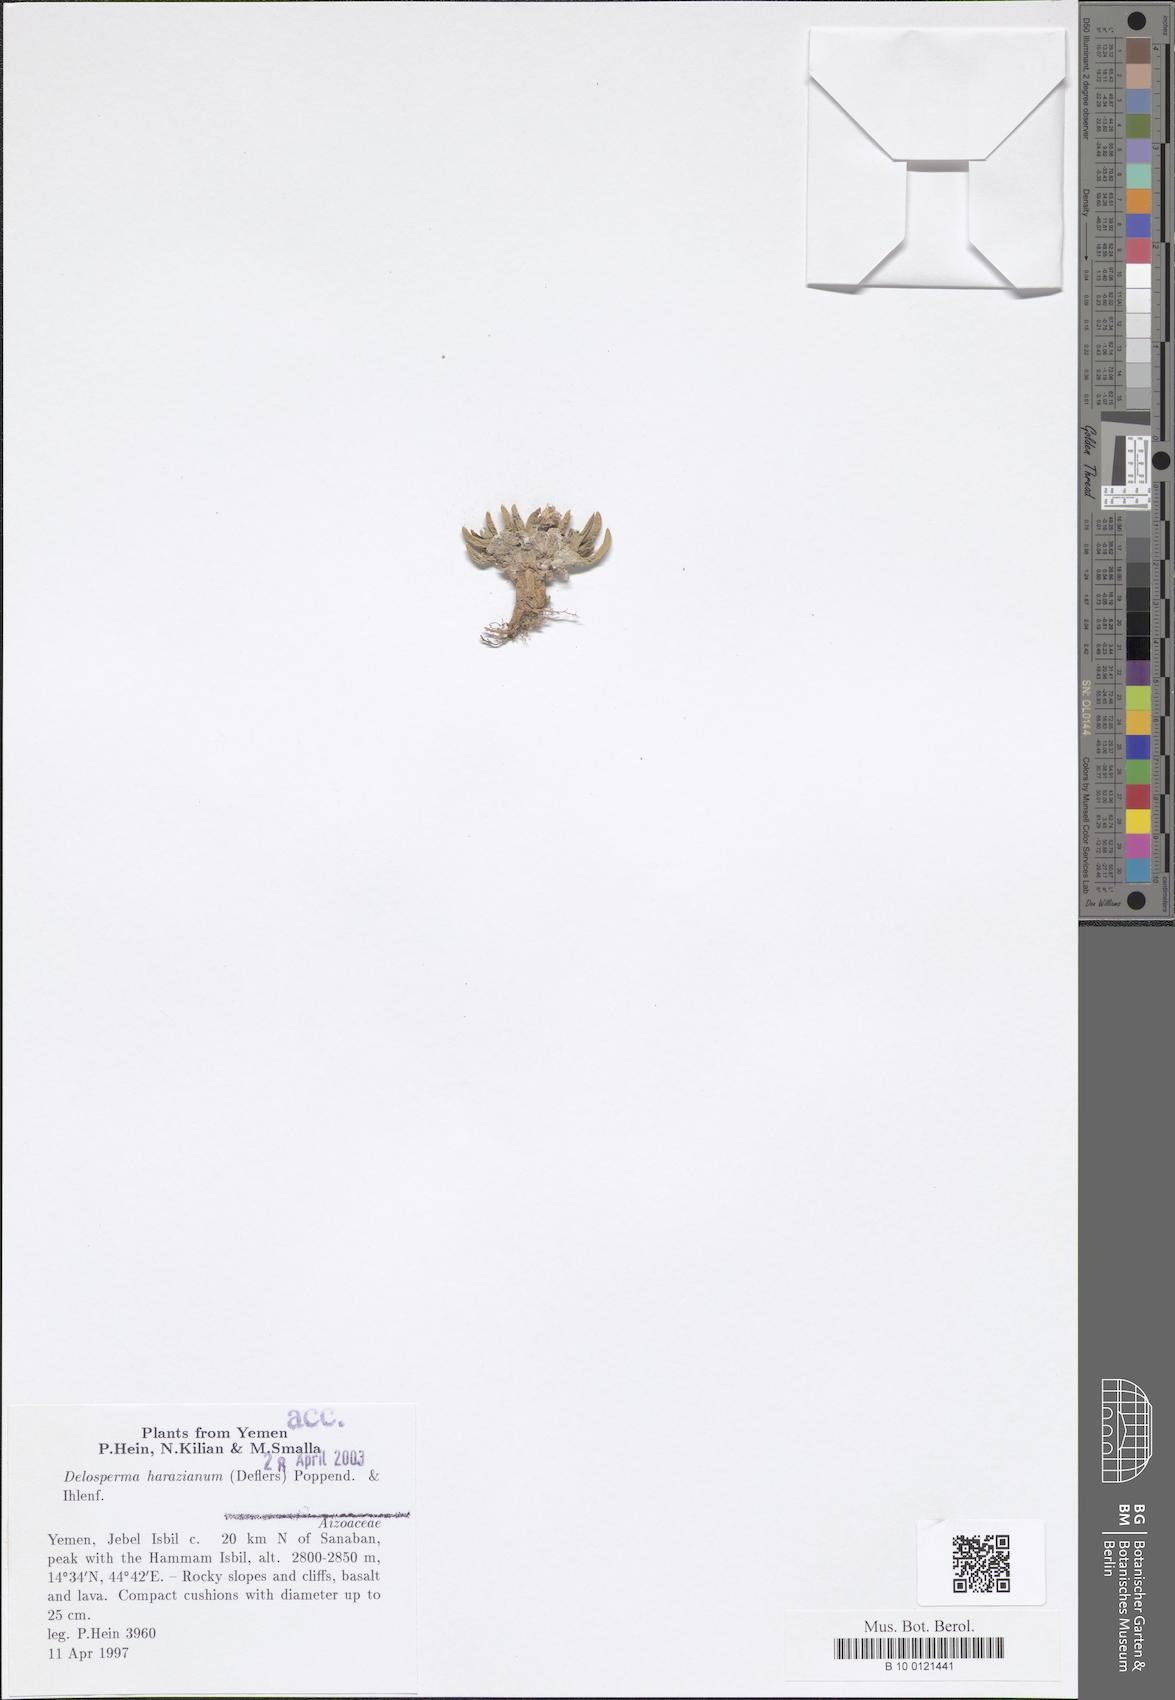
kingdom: Plantae
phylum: Tracheophyta
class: Magnoliopsida
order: Caryophyllales
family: Aizoaceae
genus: Delosperma
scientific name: Delosperma harazianum
